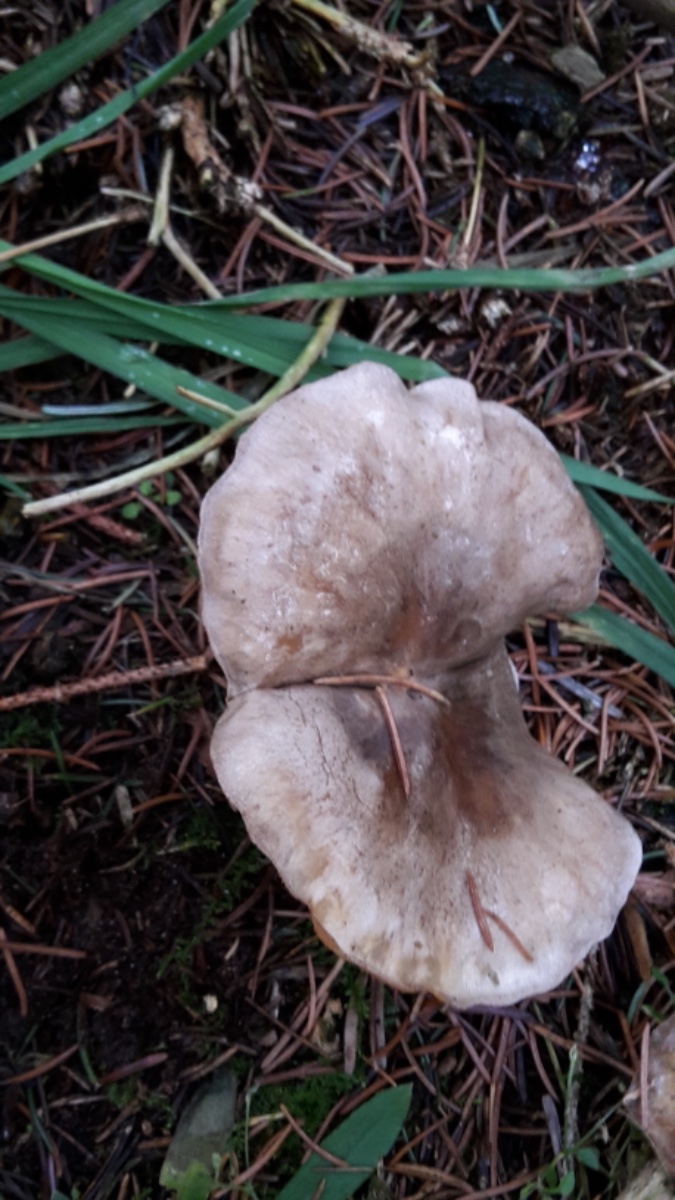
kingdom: Fungi
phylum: Basidiomycota
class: Agaricomycetes
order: Agaricales
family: Tricholomataceae
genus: Clitocybe
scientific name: Clitocybe nebularis
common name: tåge-tragthat
